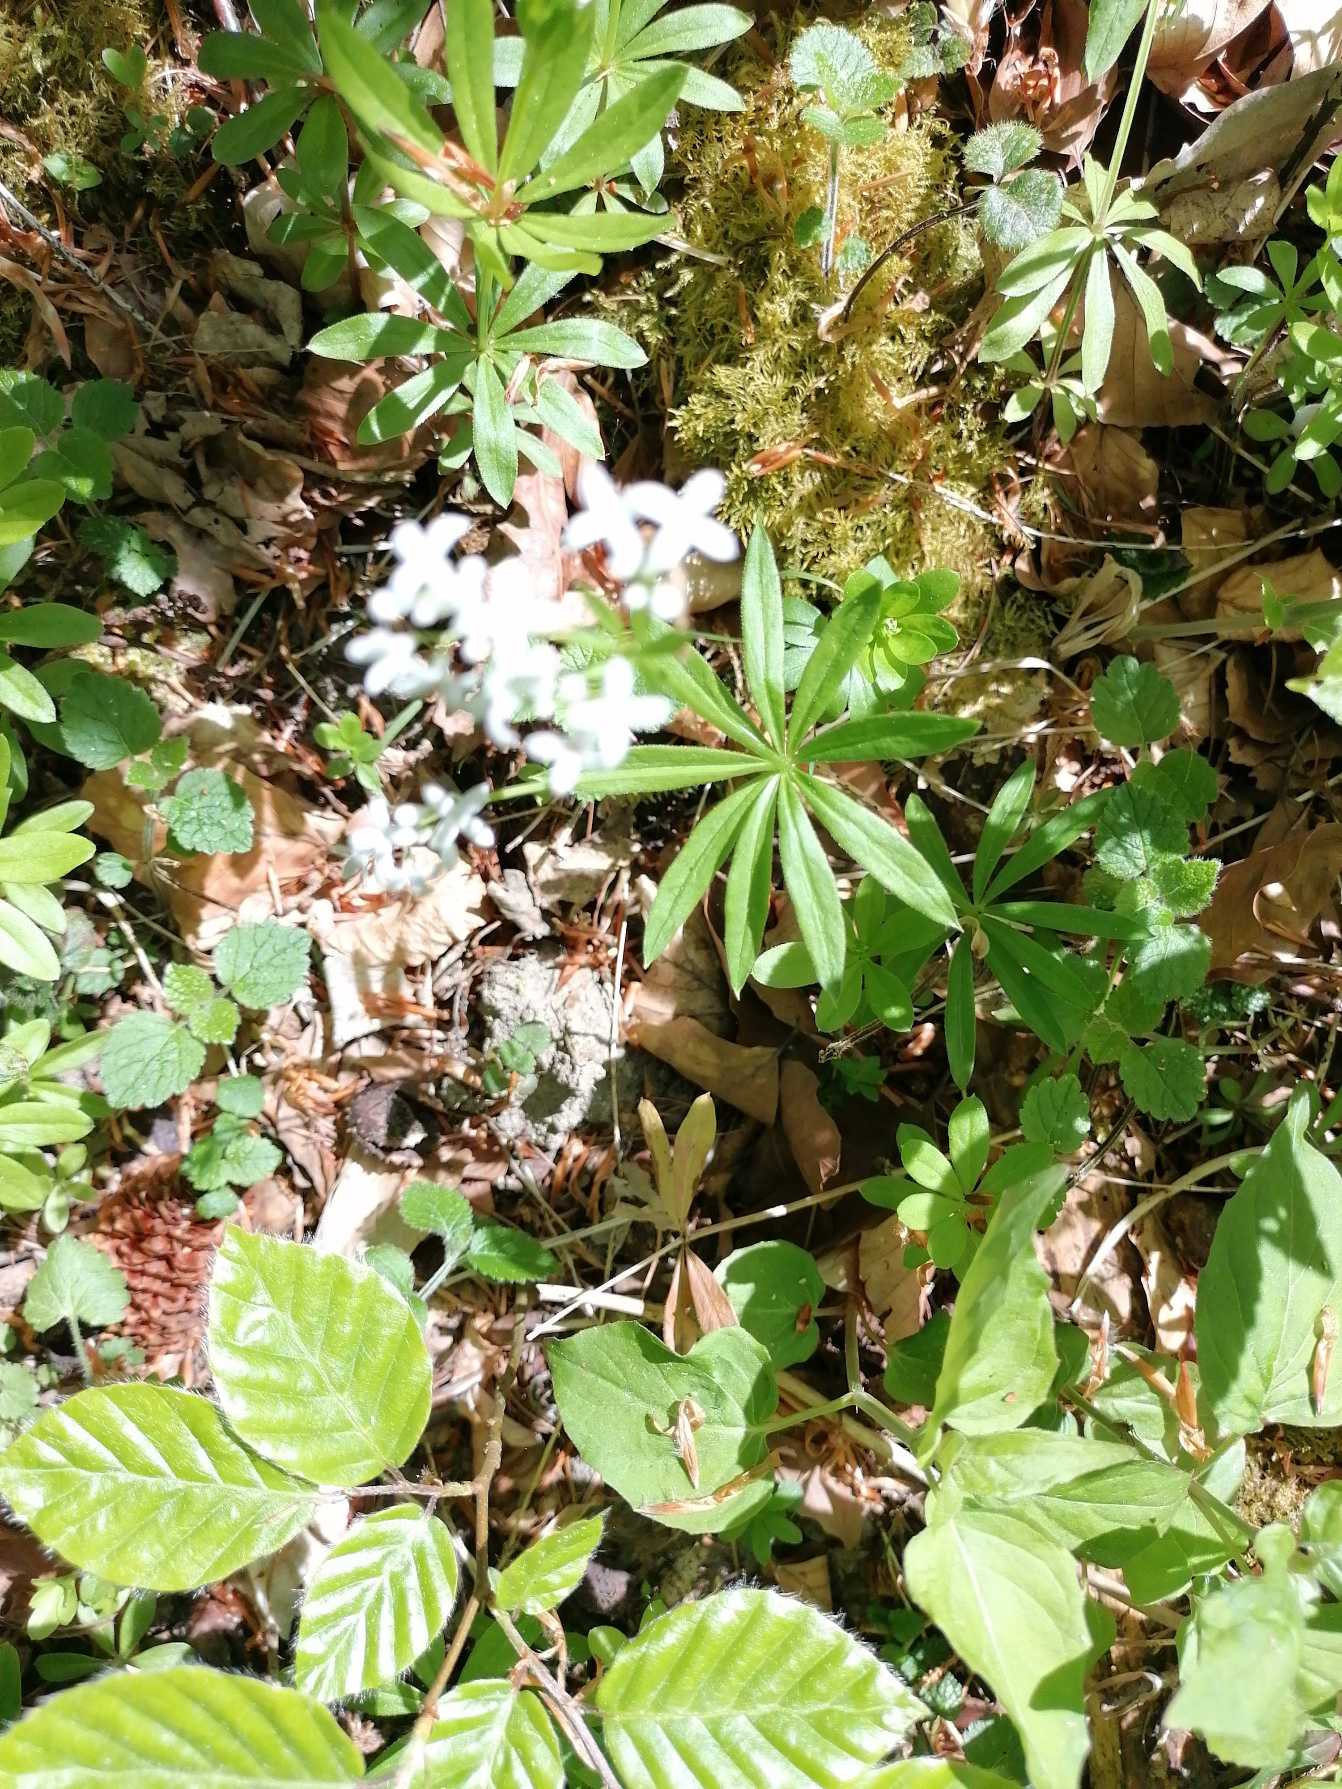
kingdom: Plantae
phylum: Tracheophyta
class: Magnoliopsida
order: Gentianales
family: Rubiaceae
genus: Galium
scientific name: Galium odoratum
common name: Skovmærke
